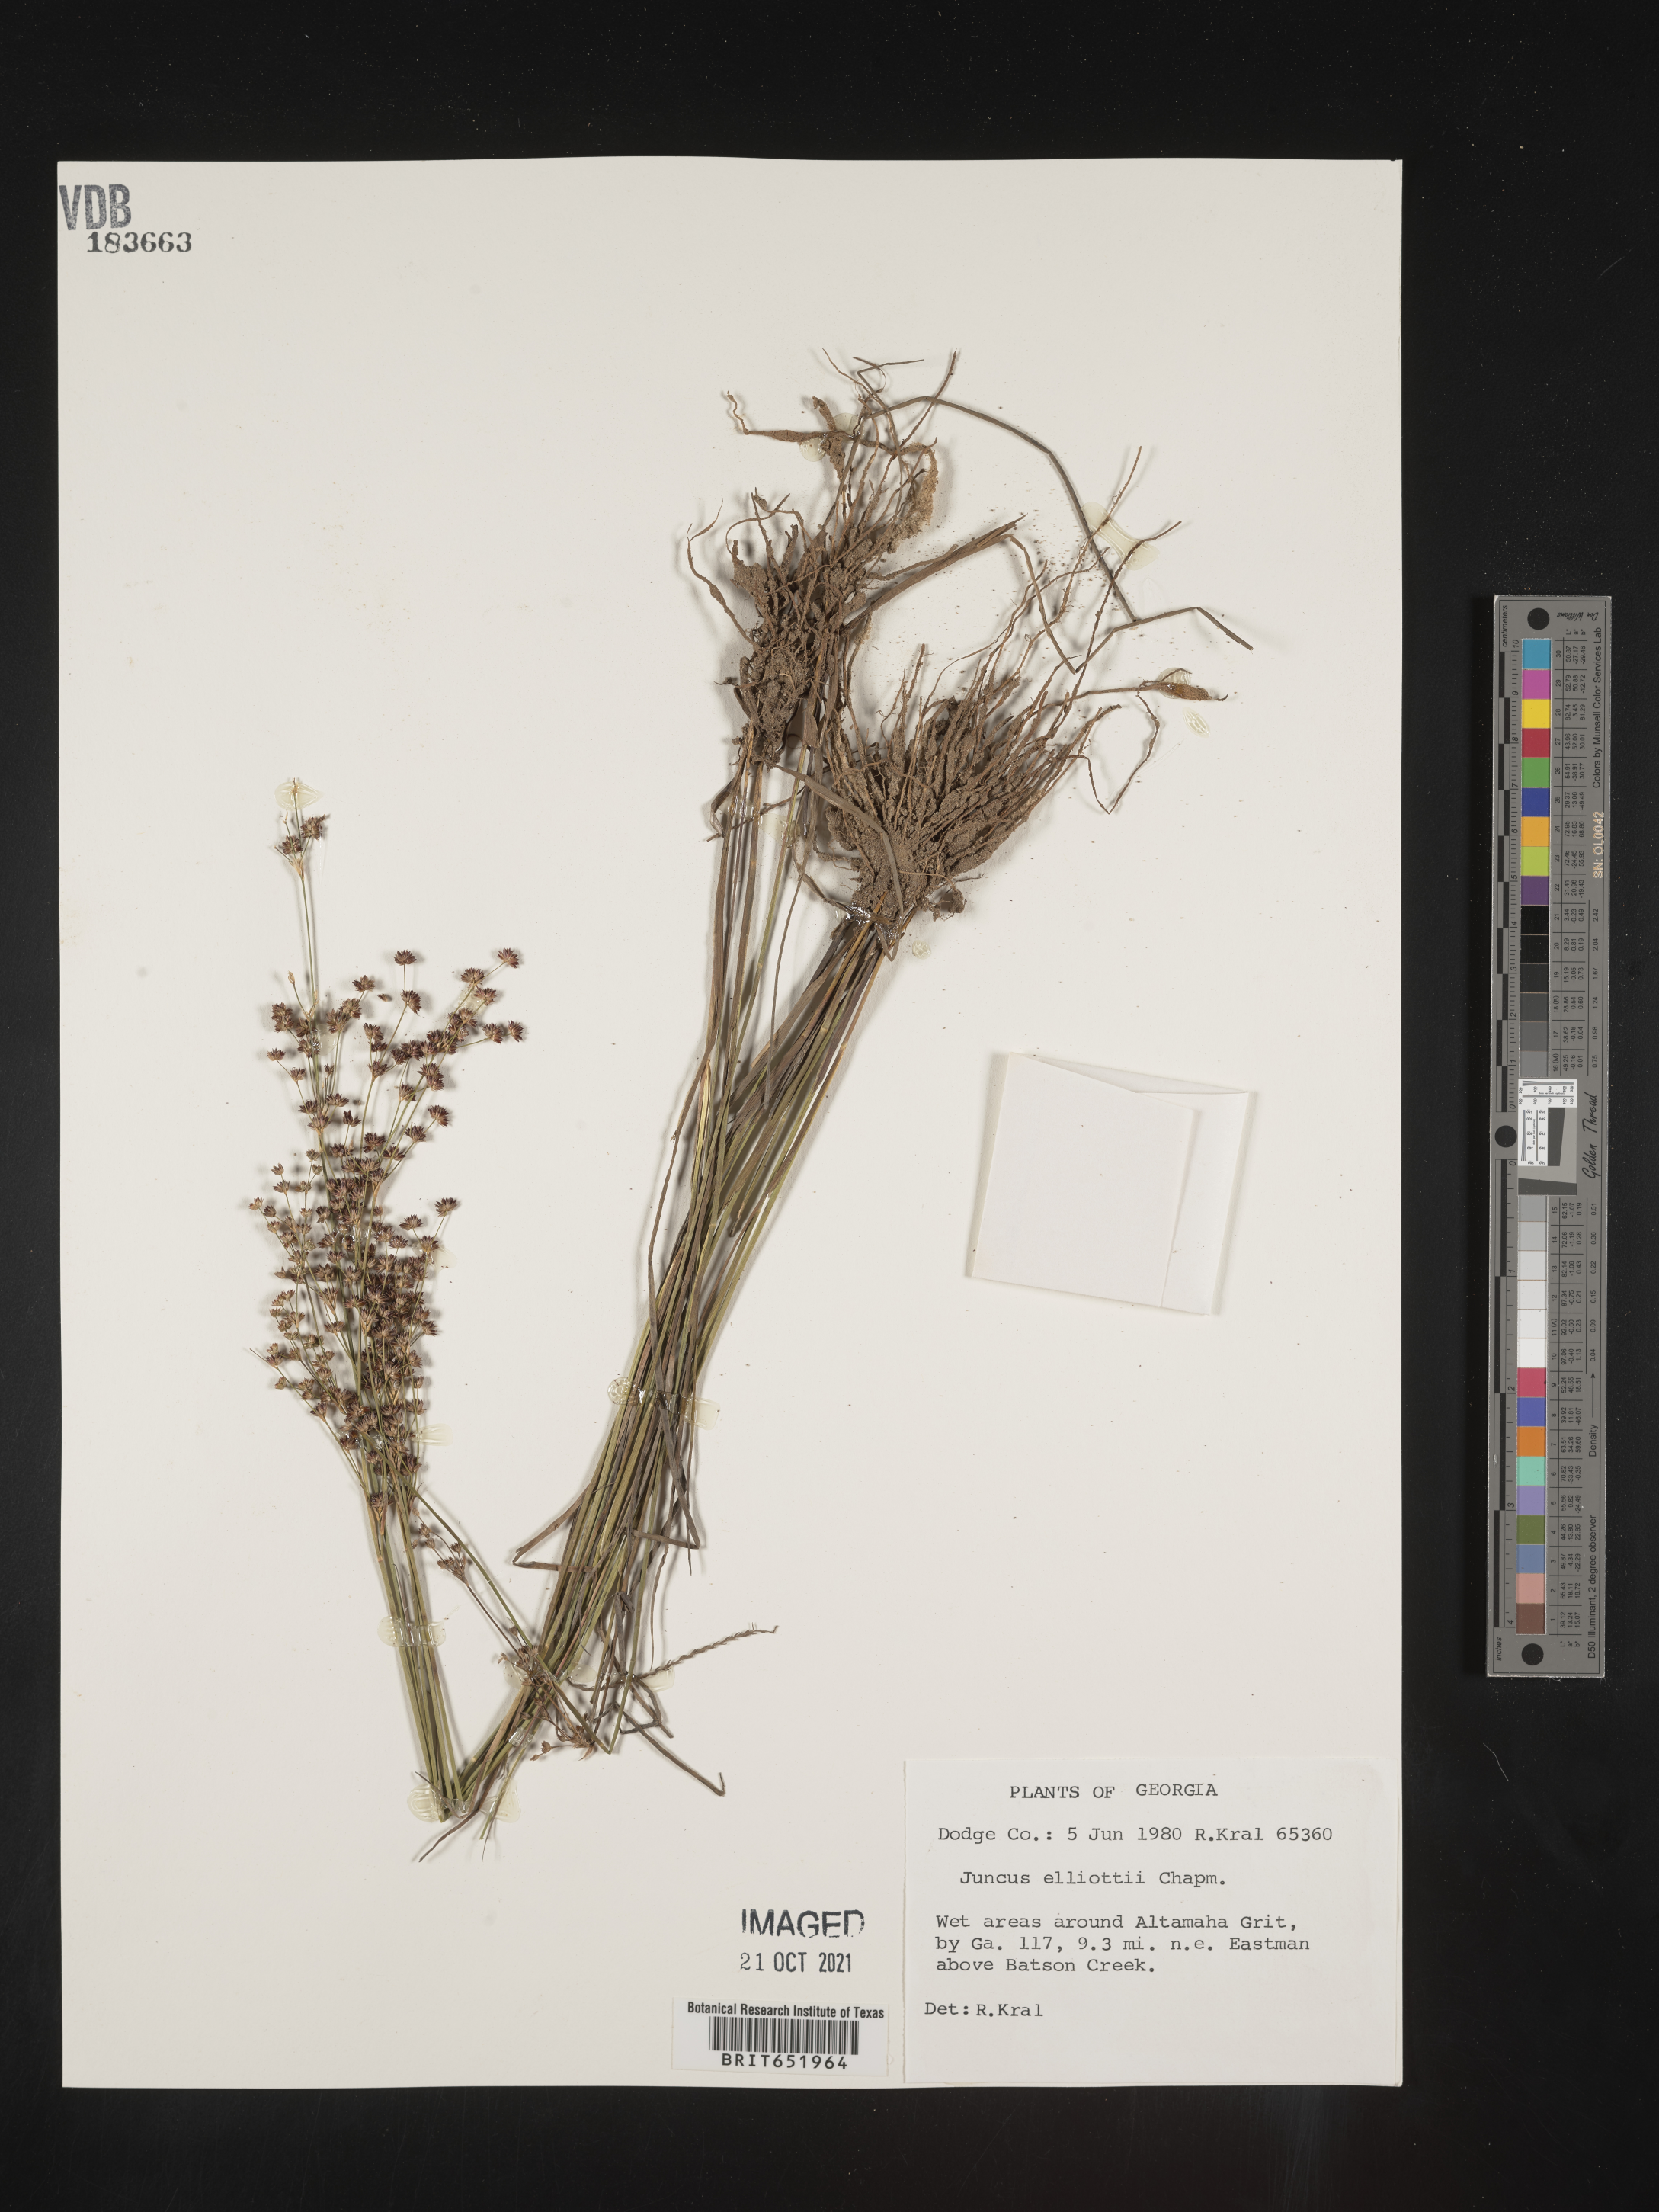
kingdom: Plantae
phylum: Tracheophyta
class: Liliopsida
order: Poales
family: Juncaceae
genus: Juncus
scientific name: Juncus elliottii
